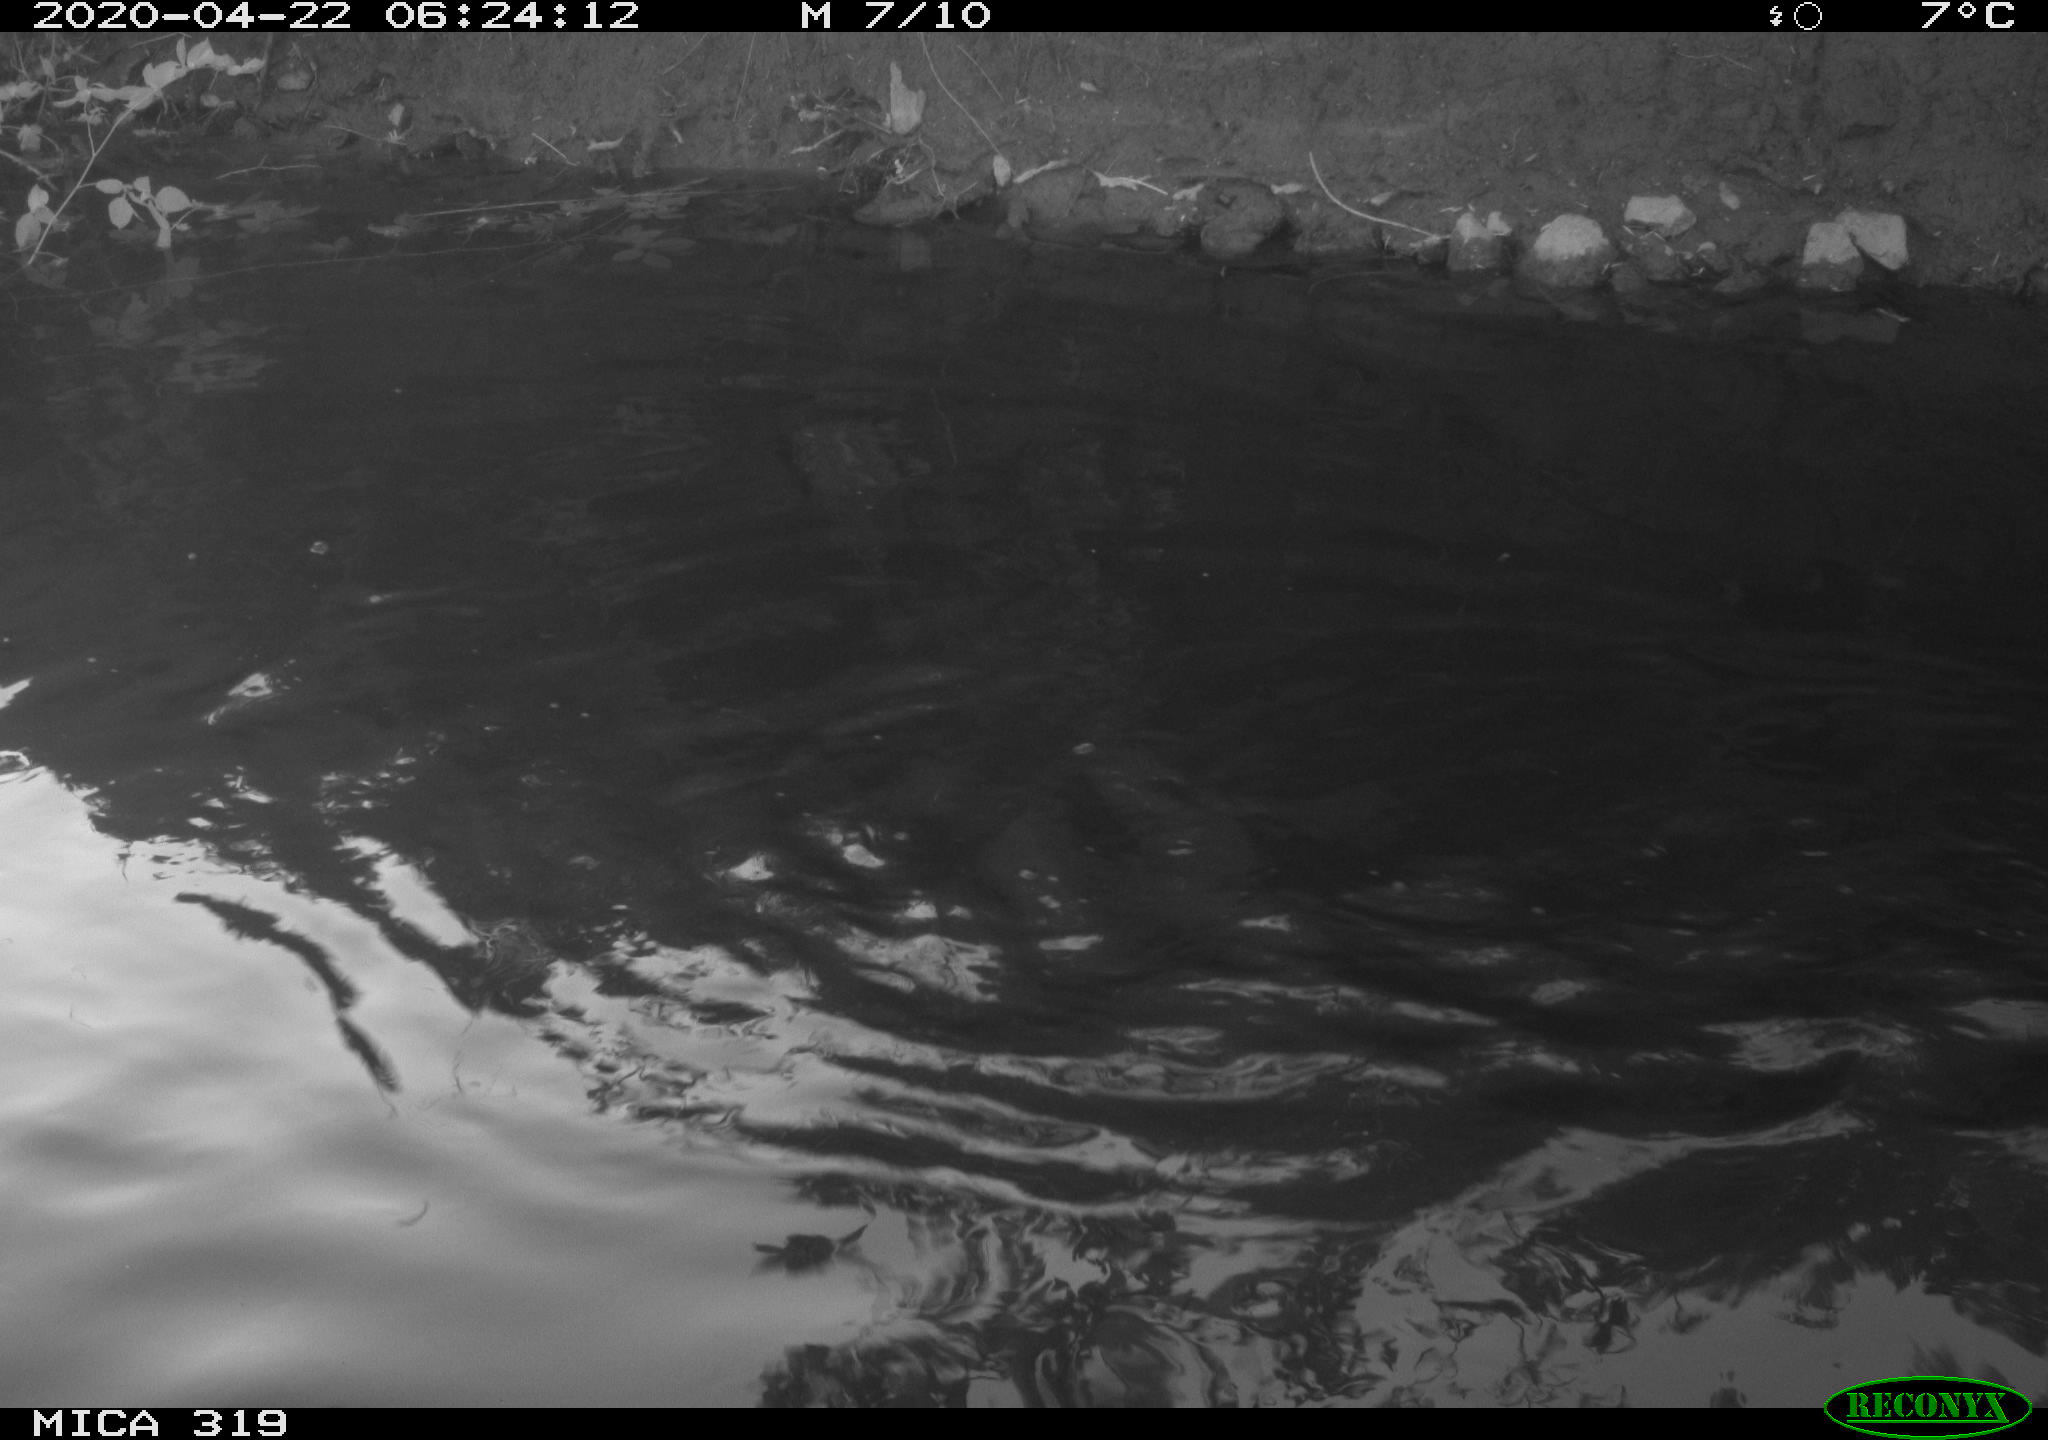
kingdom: Animalia
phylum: Chordata
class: Aves
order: Anseriformes
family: Anatidae
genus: Anas
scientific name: Anas platyrhynchos
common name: Mallard
